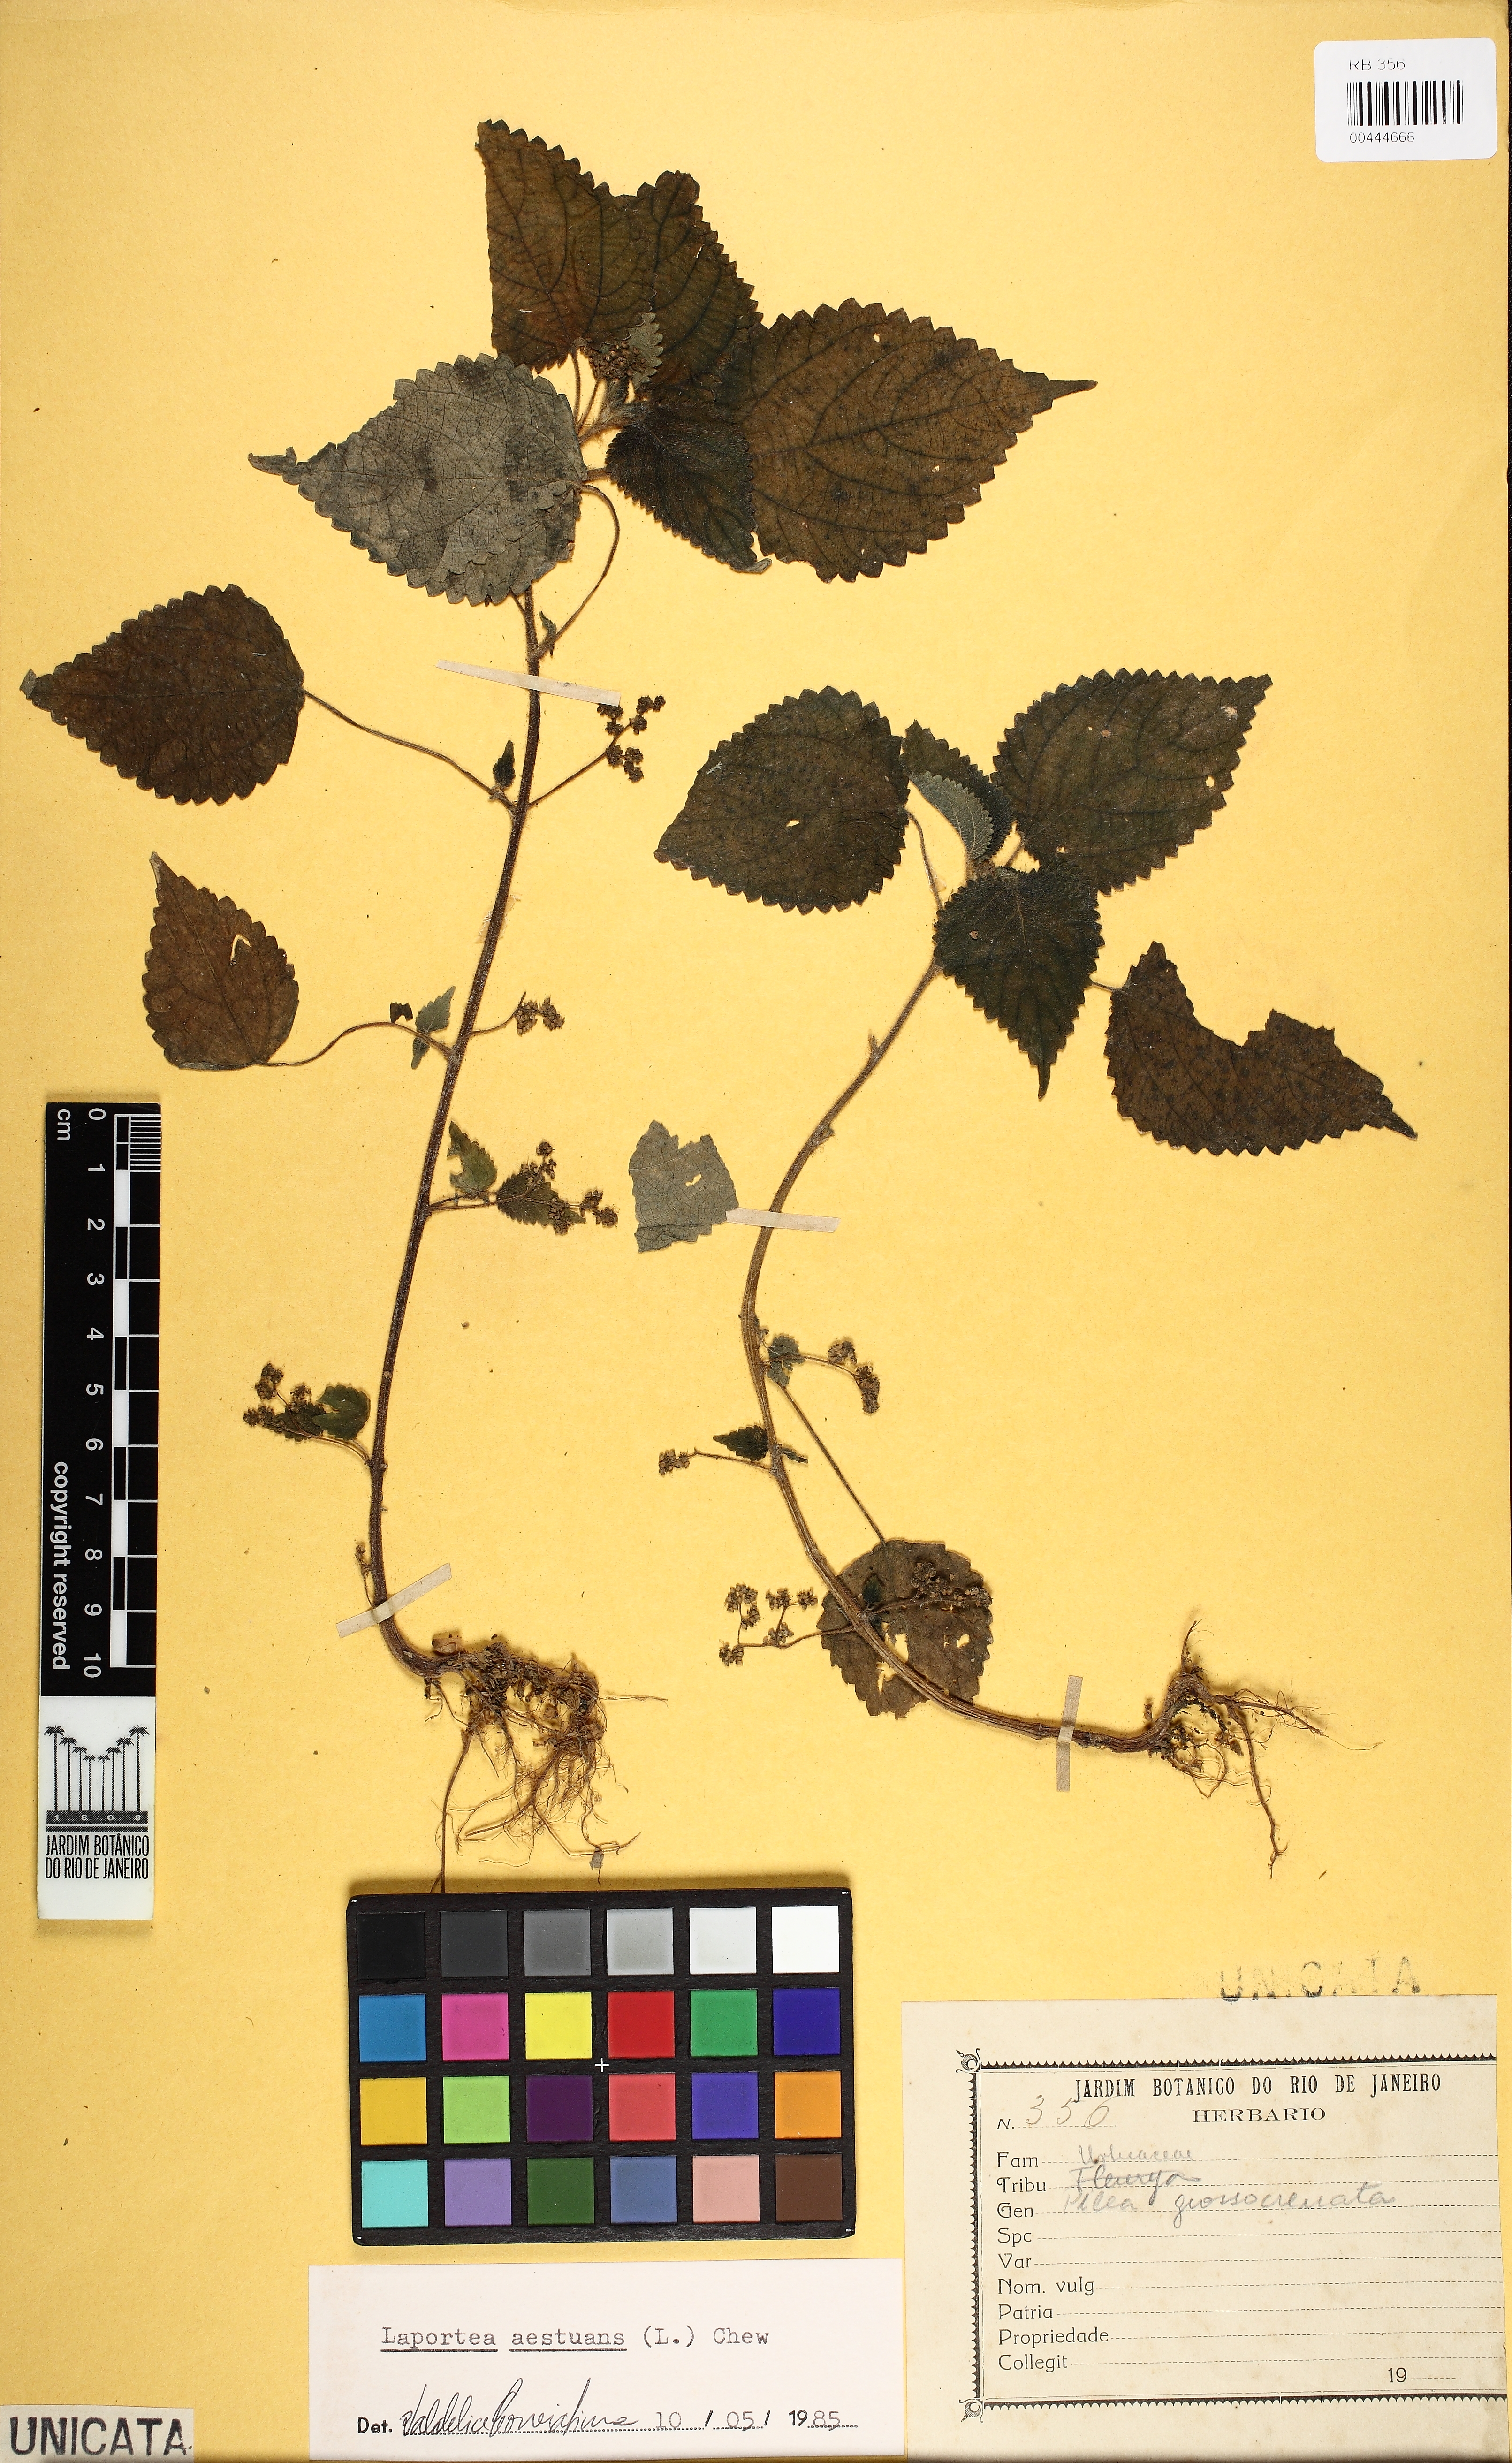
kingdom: Plantae
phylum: Tracheophyta
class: Magnoliopsida
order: Rosales
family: Urticaceae
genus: Laportea
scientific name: Laportea aestuans
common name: West indian woodnettle
